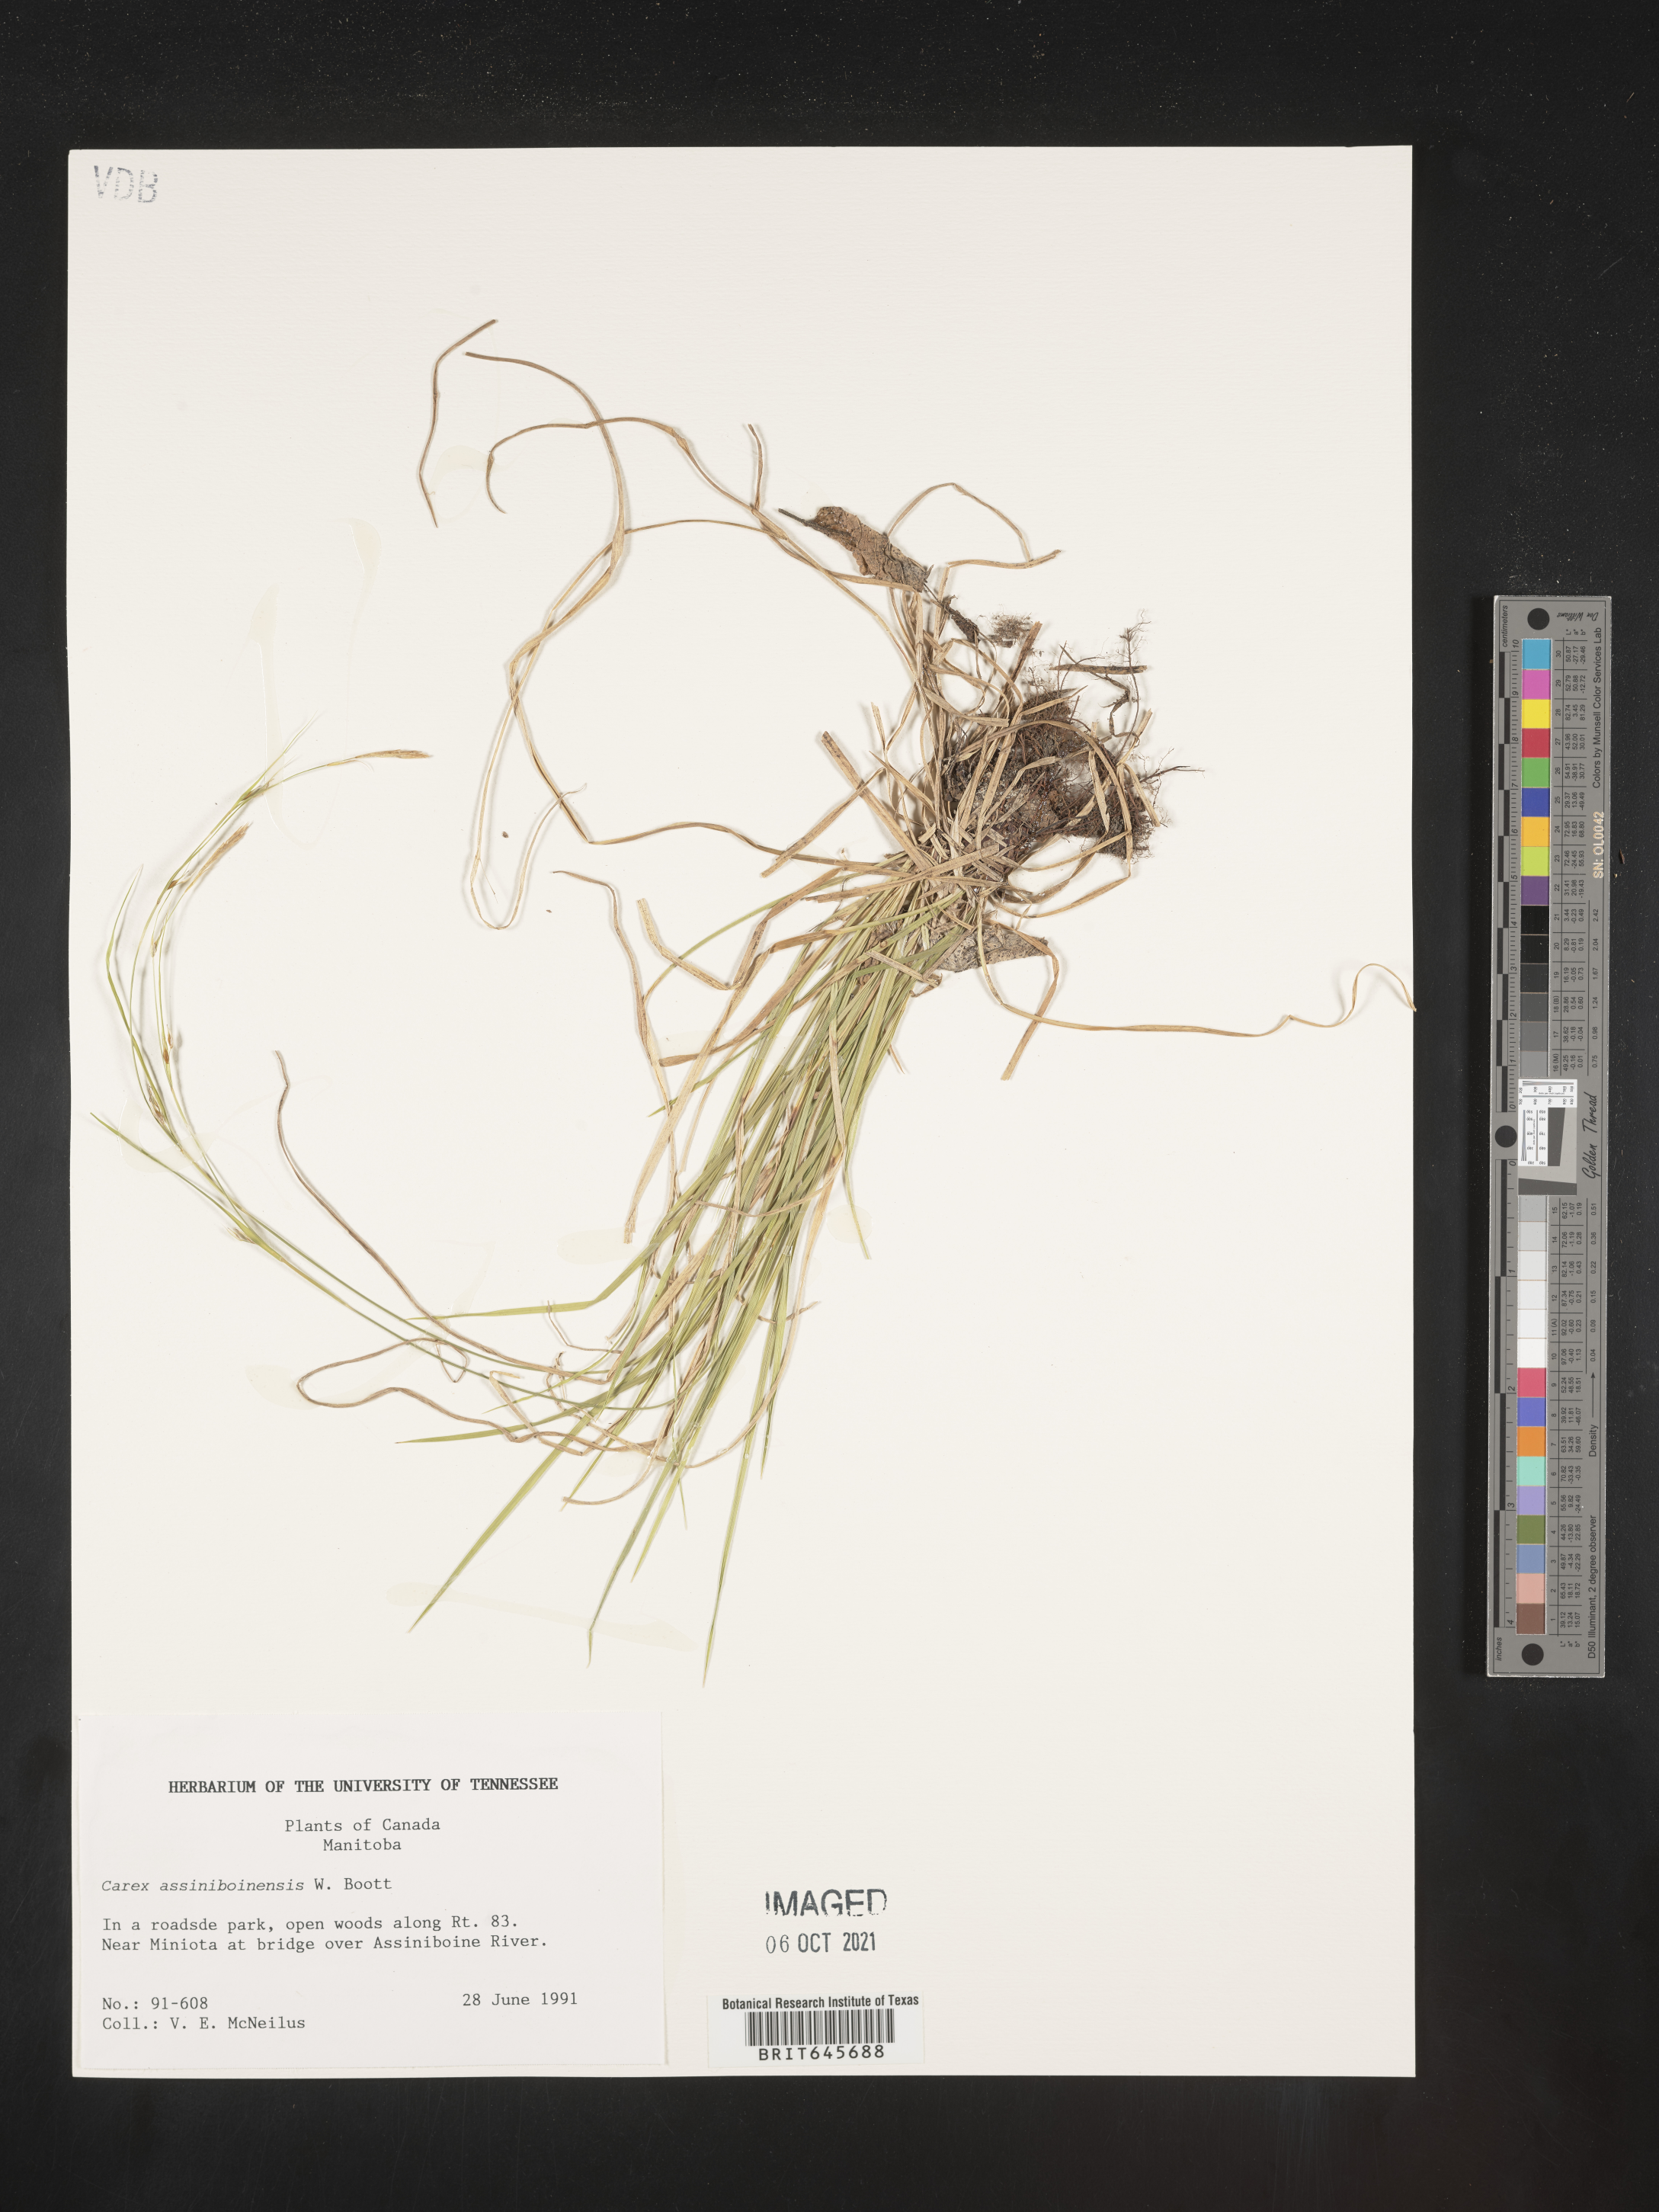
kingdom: Plantae
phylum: Tracheophyta
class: Liliopsida
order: Poales
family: Cyperaceae
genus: Carex
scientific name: Carex assiniboinensis
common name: Assiniboia sedge
